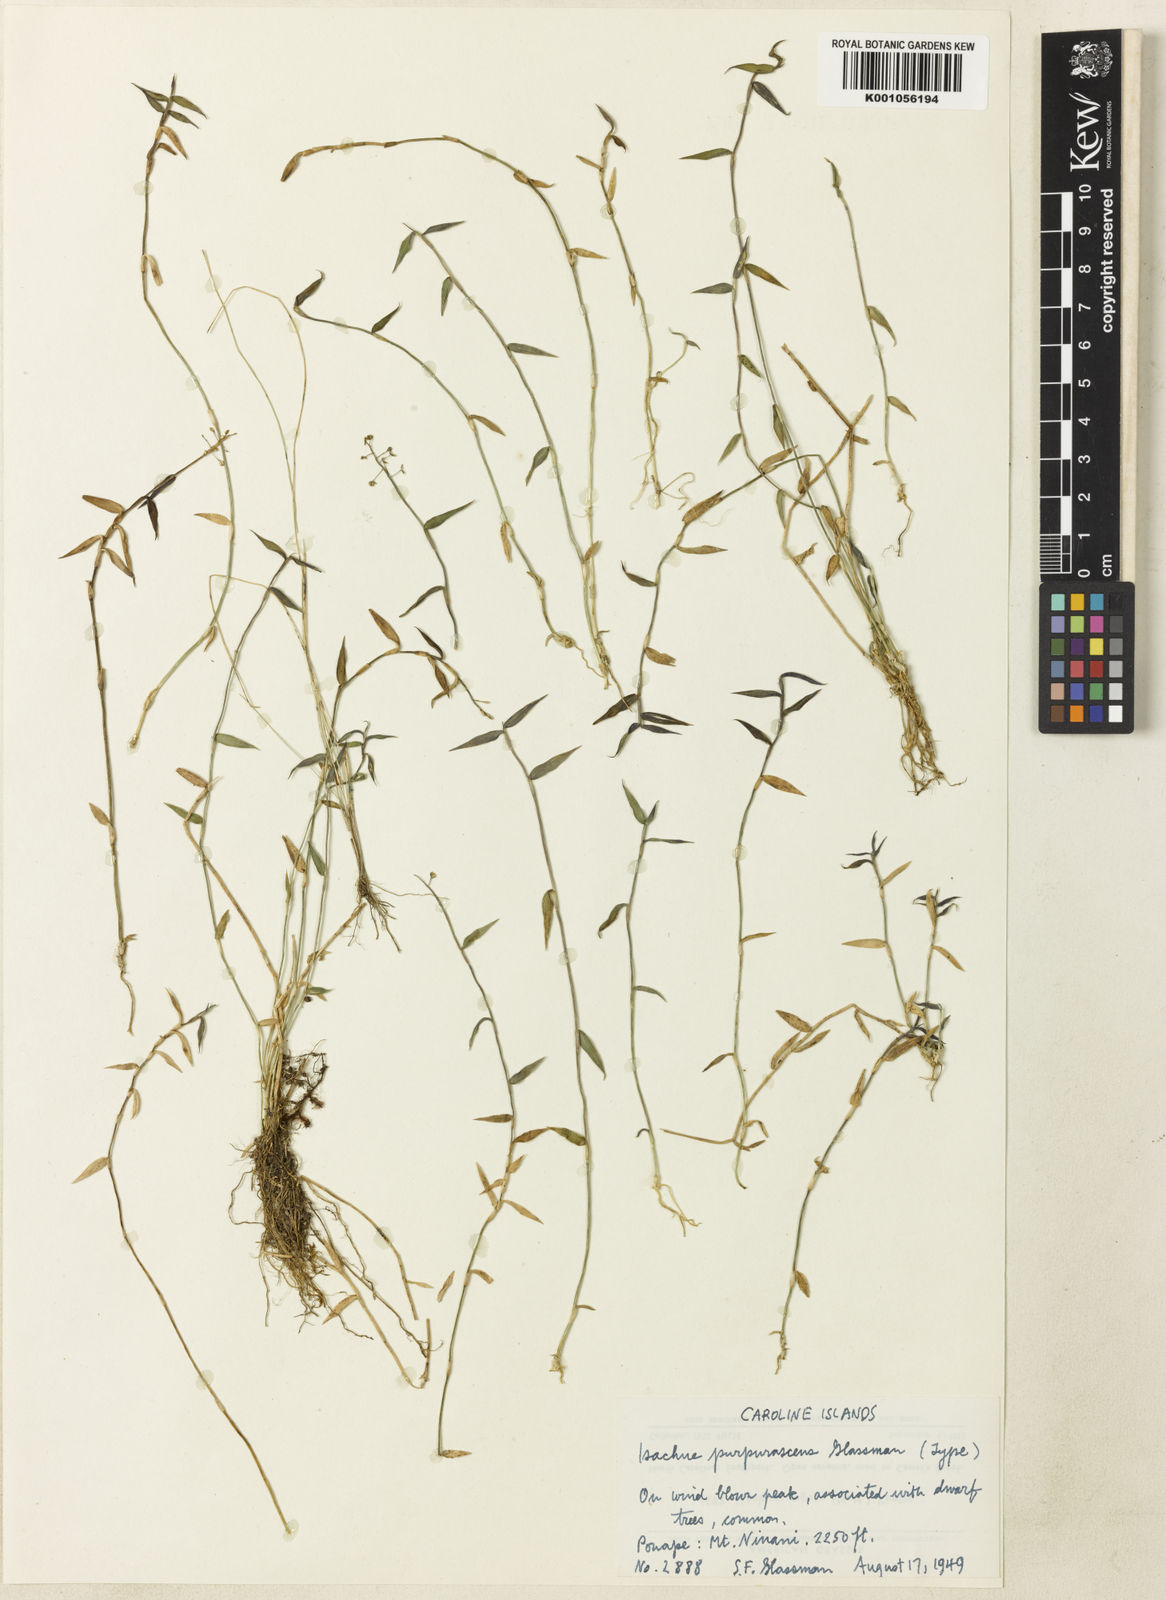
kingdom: Plantae
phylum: Tracheophyta
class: Liliopsida
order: Poales
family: Poaceae
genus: Isachne
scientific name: Isachne confusa
